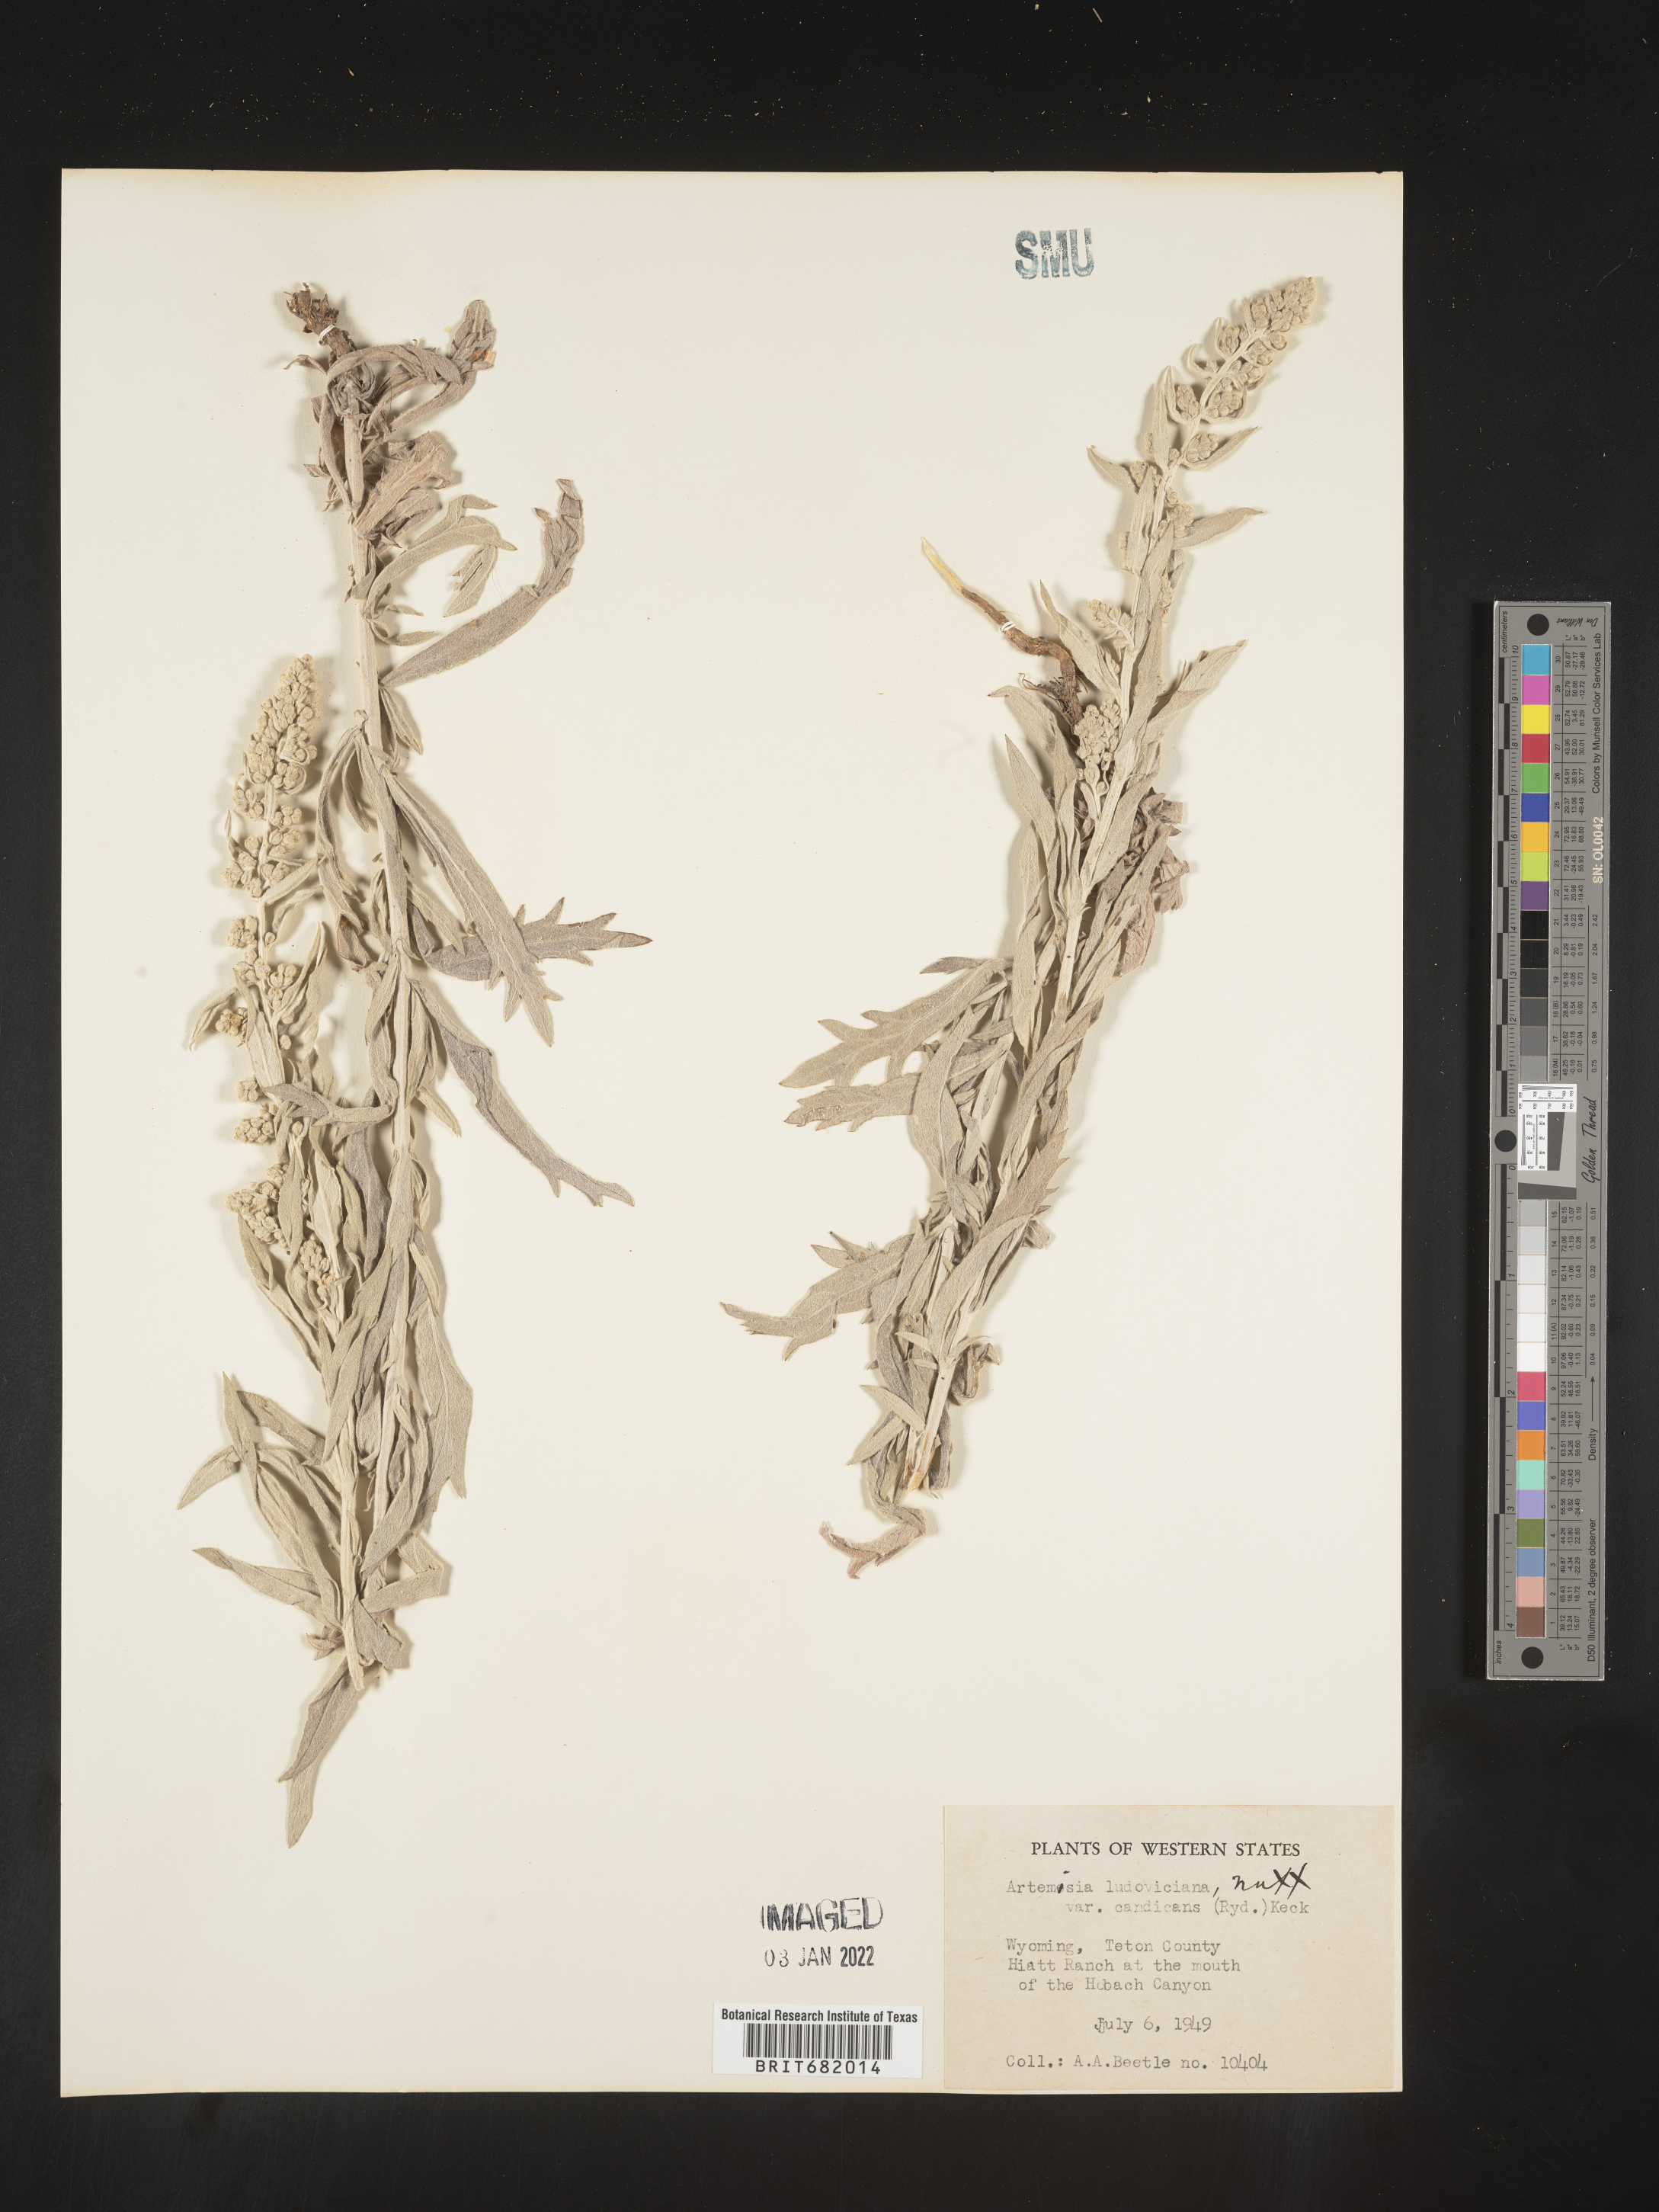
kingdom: Plantae
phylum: Tracheophyta
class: Magnoliopsida
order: Asterales
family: Asteraceae
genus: Artemisia
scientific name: Artemisia ludoviciana
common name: Western mugwort
